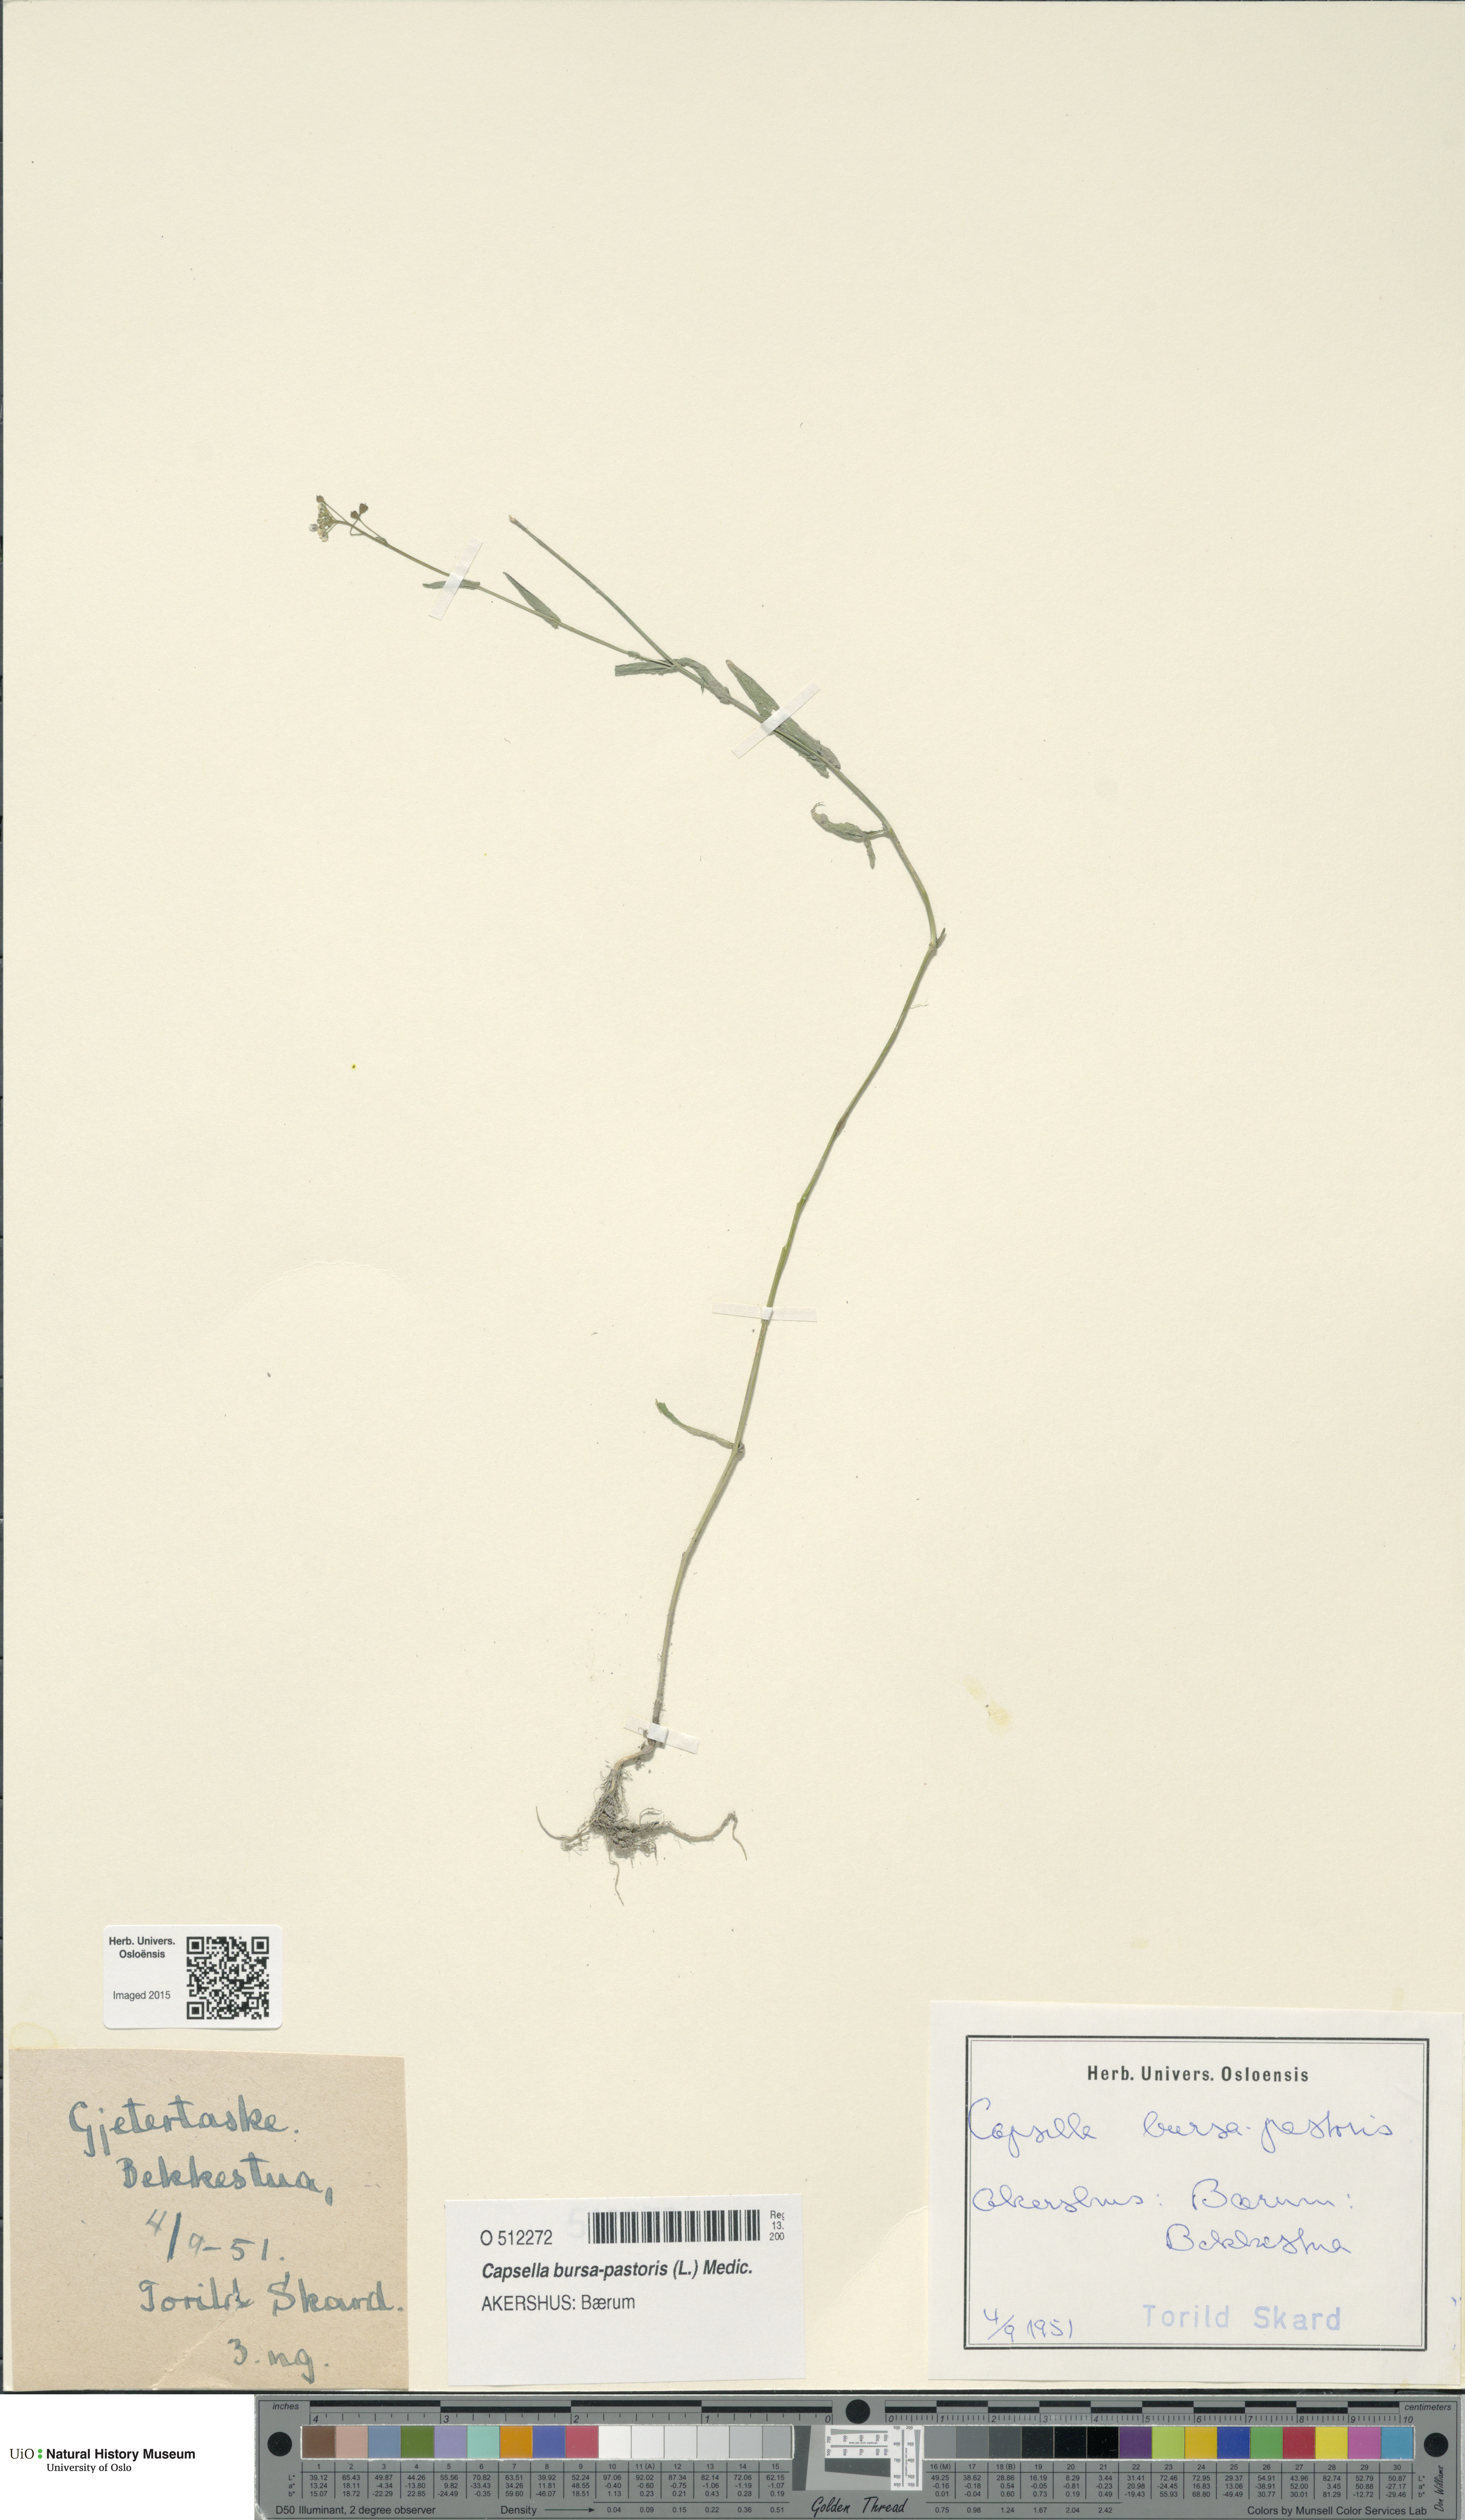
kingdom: Plantae
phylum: Tracheophyta
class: Magnoliopsida
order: Brassicales
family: Brassicaceae
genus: Capsella
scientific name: Capsella bursa-pastoris
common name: Shepherd's purse
